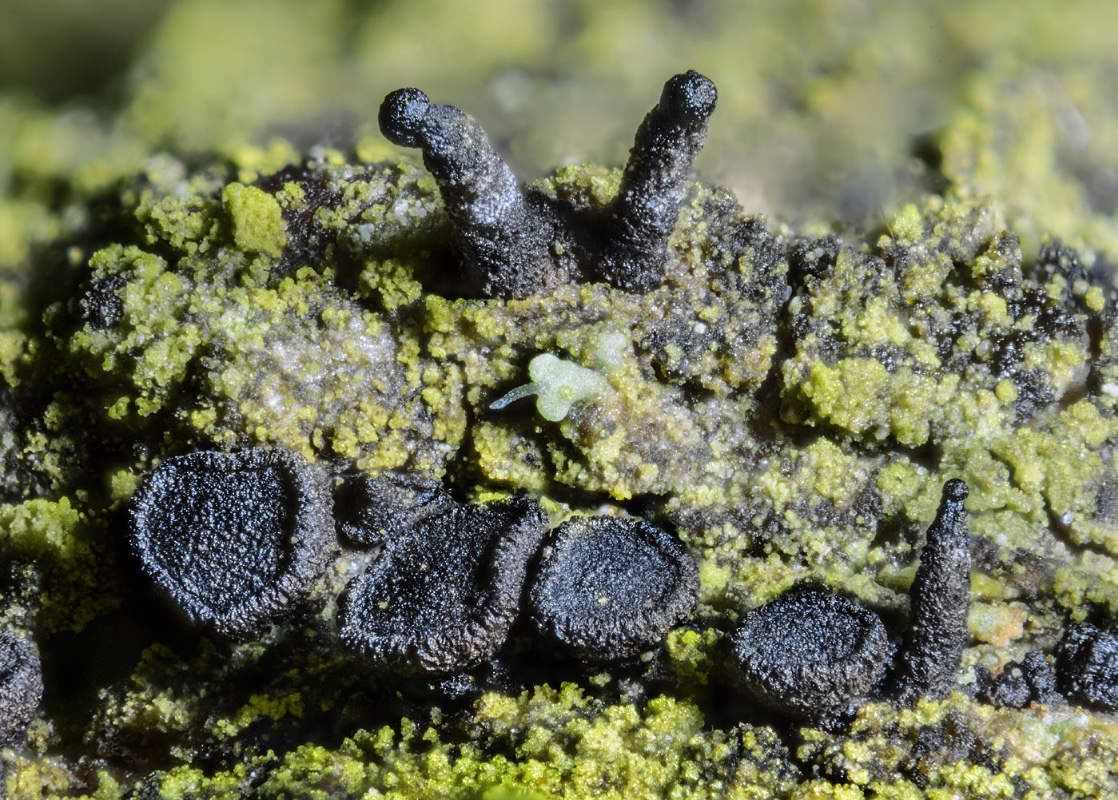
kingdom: Fungi
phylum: Ascomycota
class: Leotiomycetes
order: Helotiales
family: Dermateaceae
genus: Dermea
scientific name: Dermea prunastri
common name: blomme-klyngeskive
